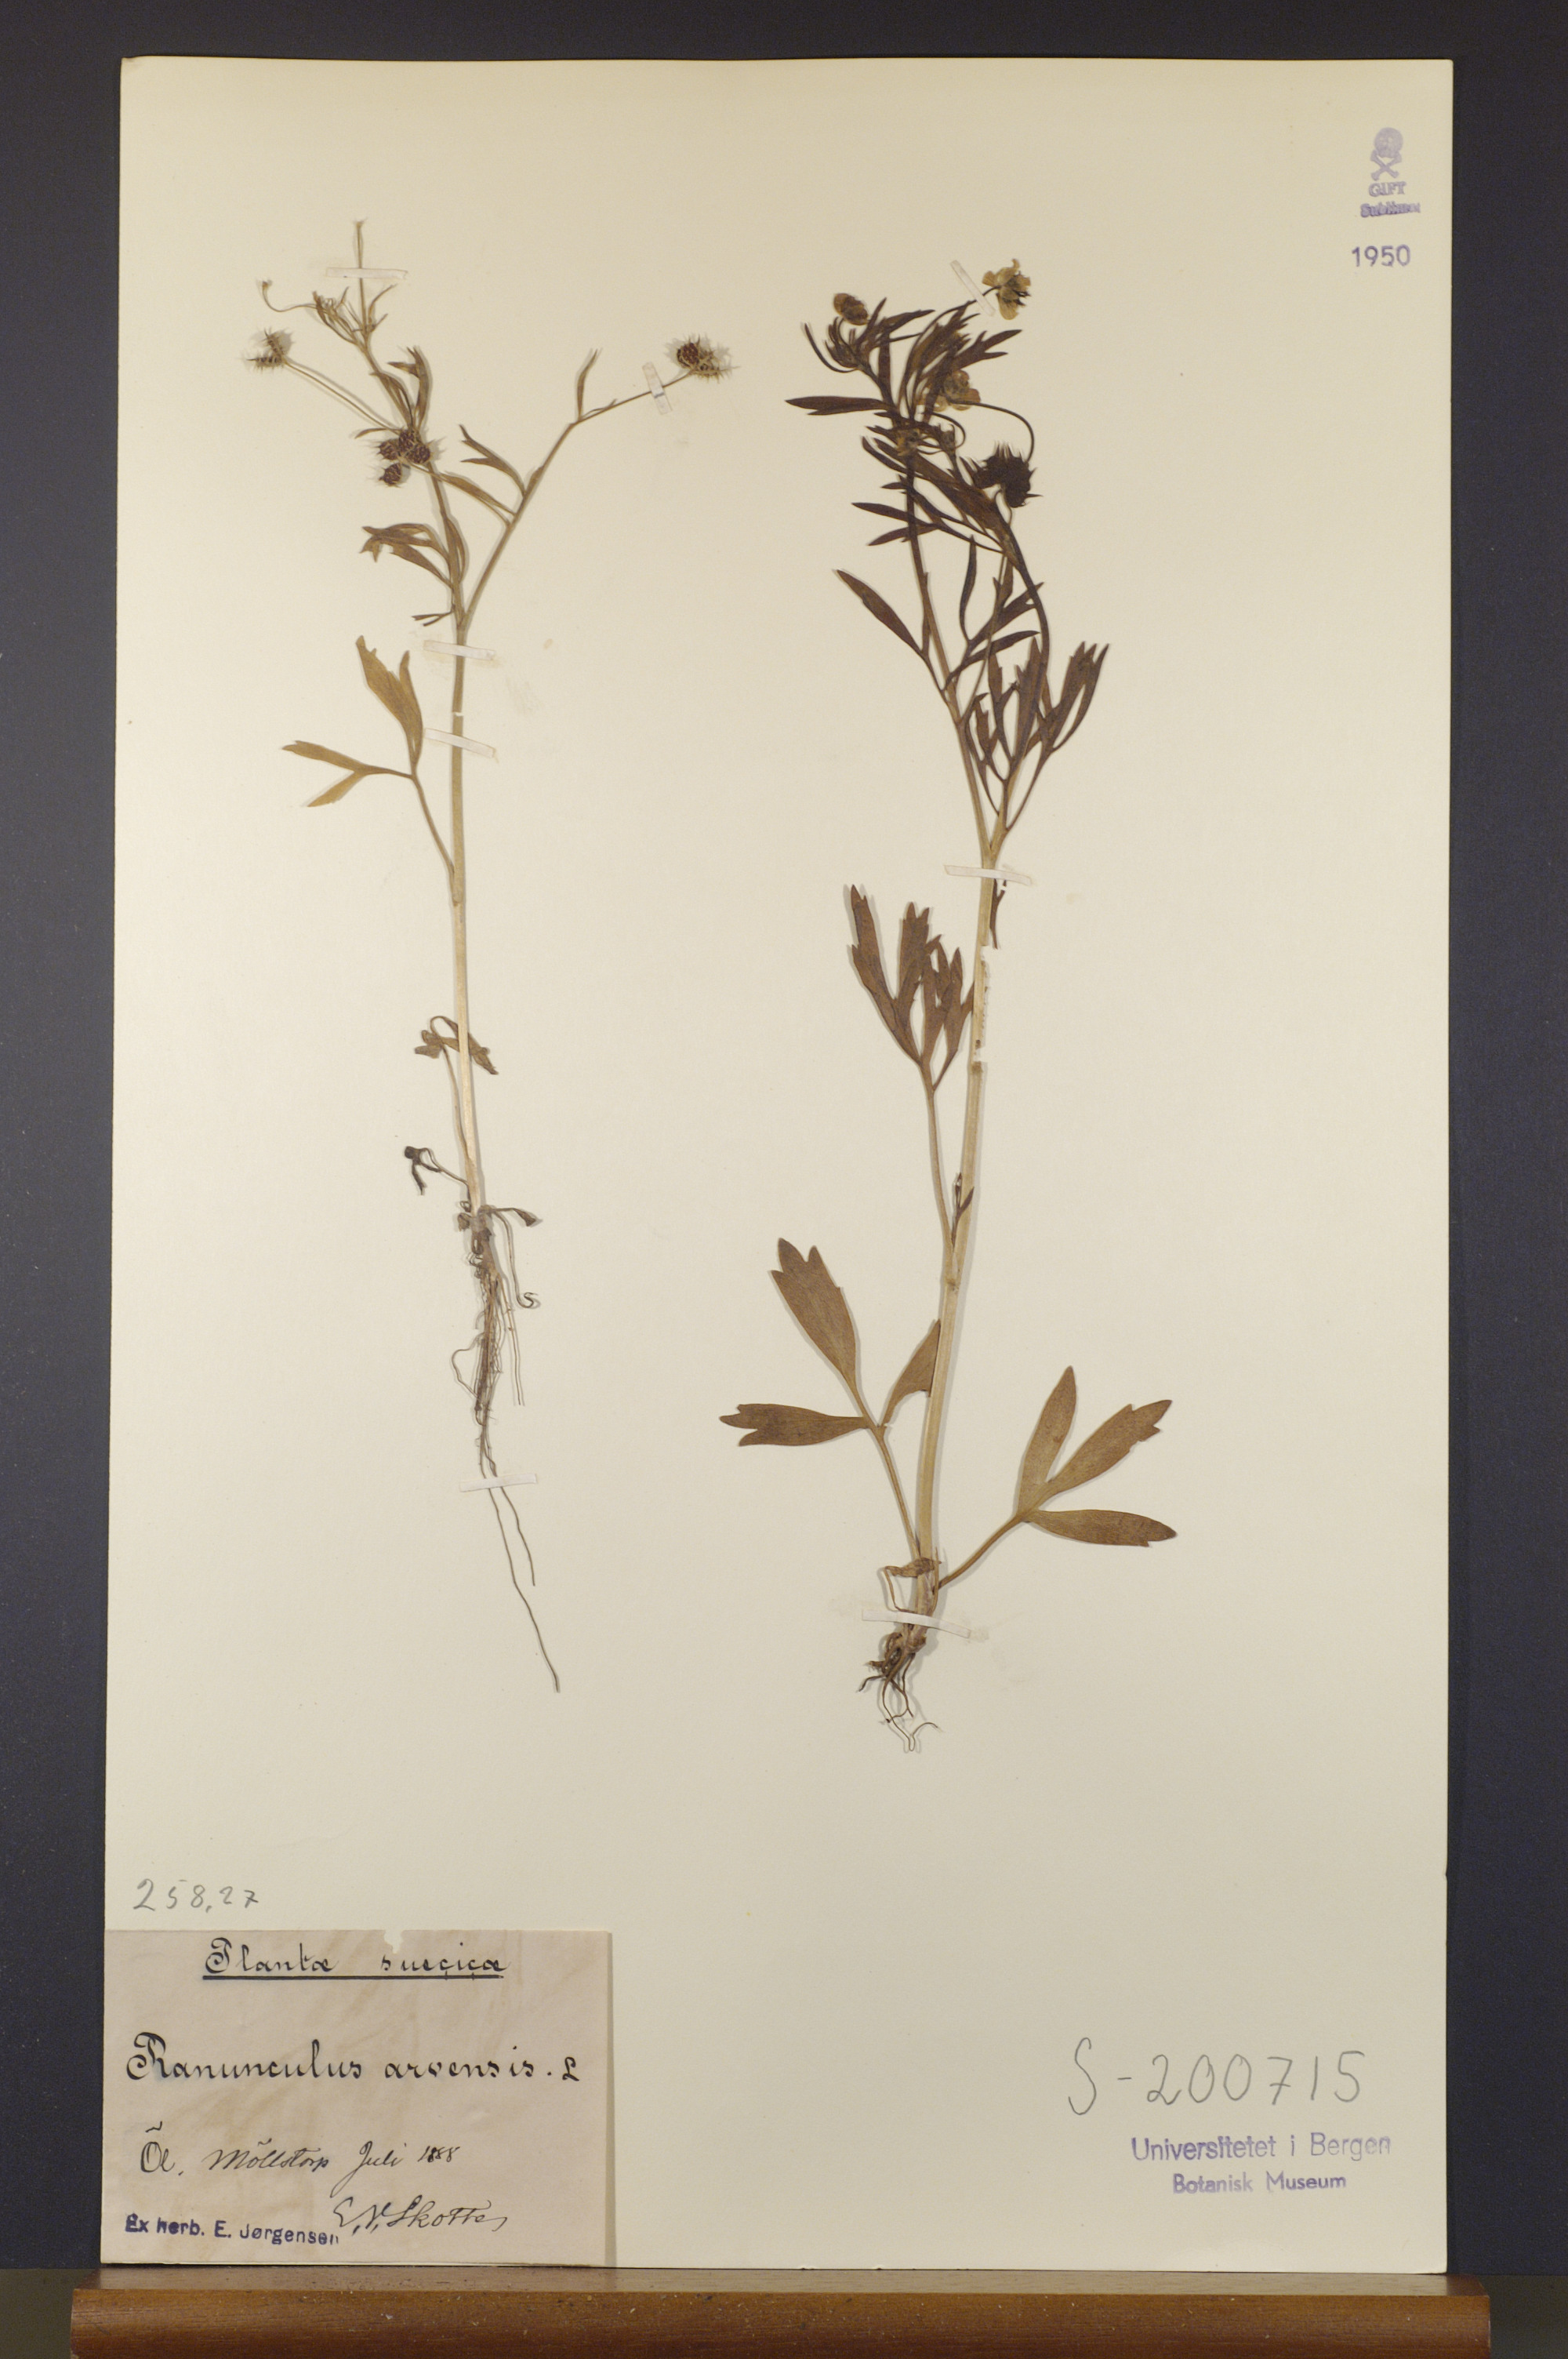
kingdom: Plantae
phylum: Tracheophyta
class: Magnoliopsida
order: Ranunculales
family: Ranunculaceae
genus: Ranunculus
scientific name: Ranunculus arvensis
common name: Corn buttercup
